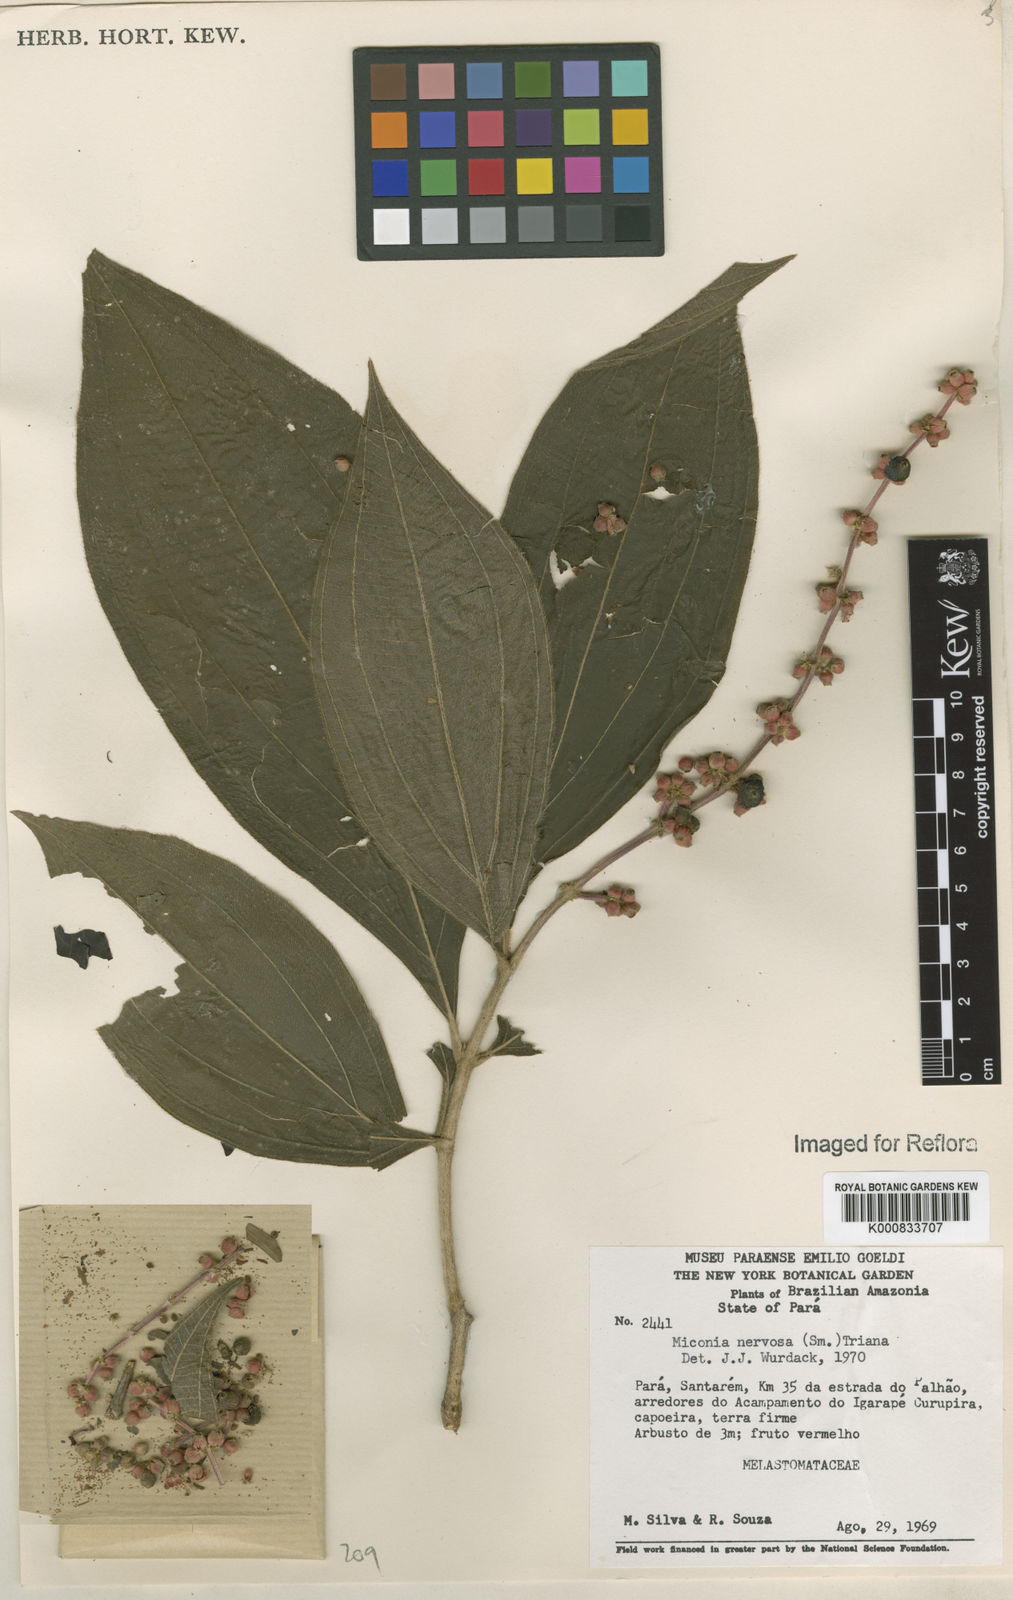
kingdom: Plantae
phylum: Tracheophyta
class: Magnoliopsida
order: Myrtales
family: Melastomataceae
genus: Miconia
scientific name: Miconia nervosa
